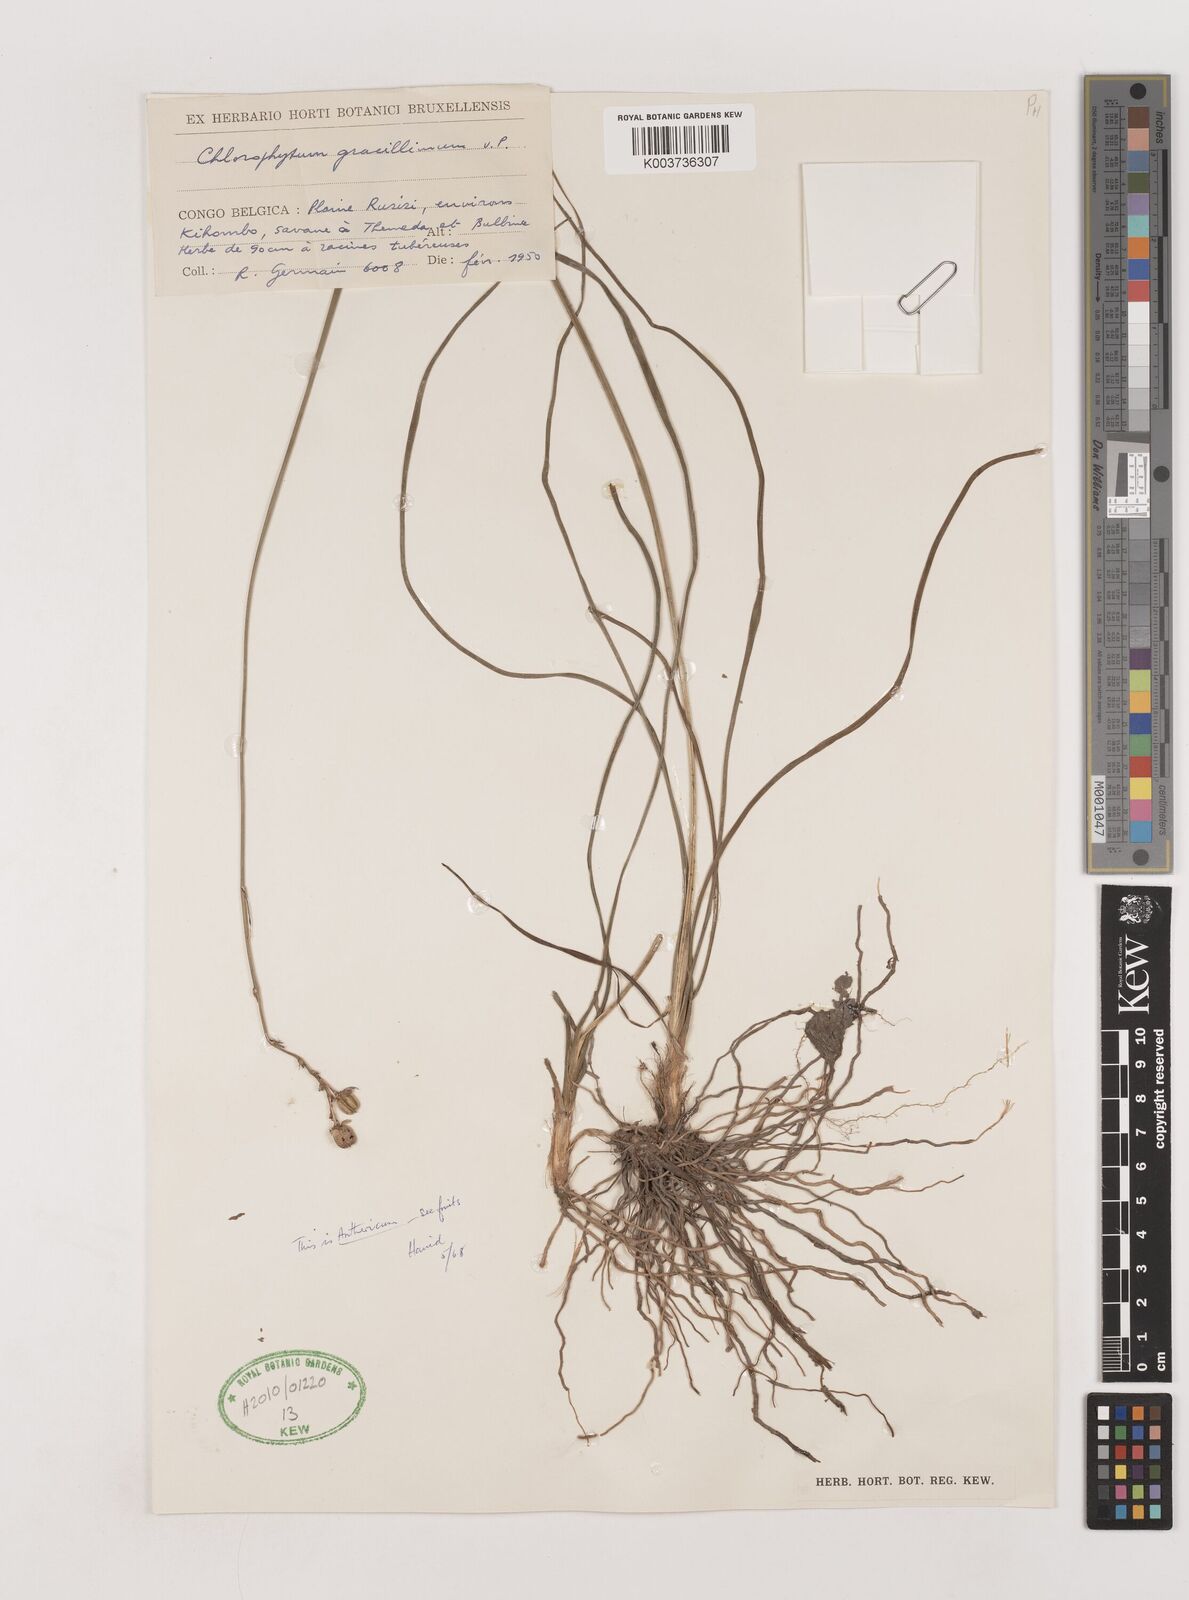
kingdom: Plantae
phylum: Tracheophyta
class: Liliopsida
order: Asparagales
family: Asparagaceae
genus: Anthericum
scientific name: Anthericum gracillimum
